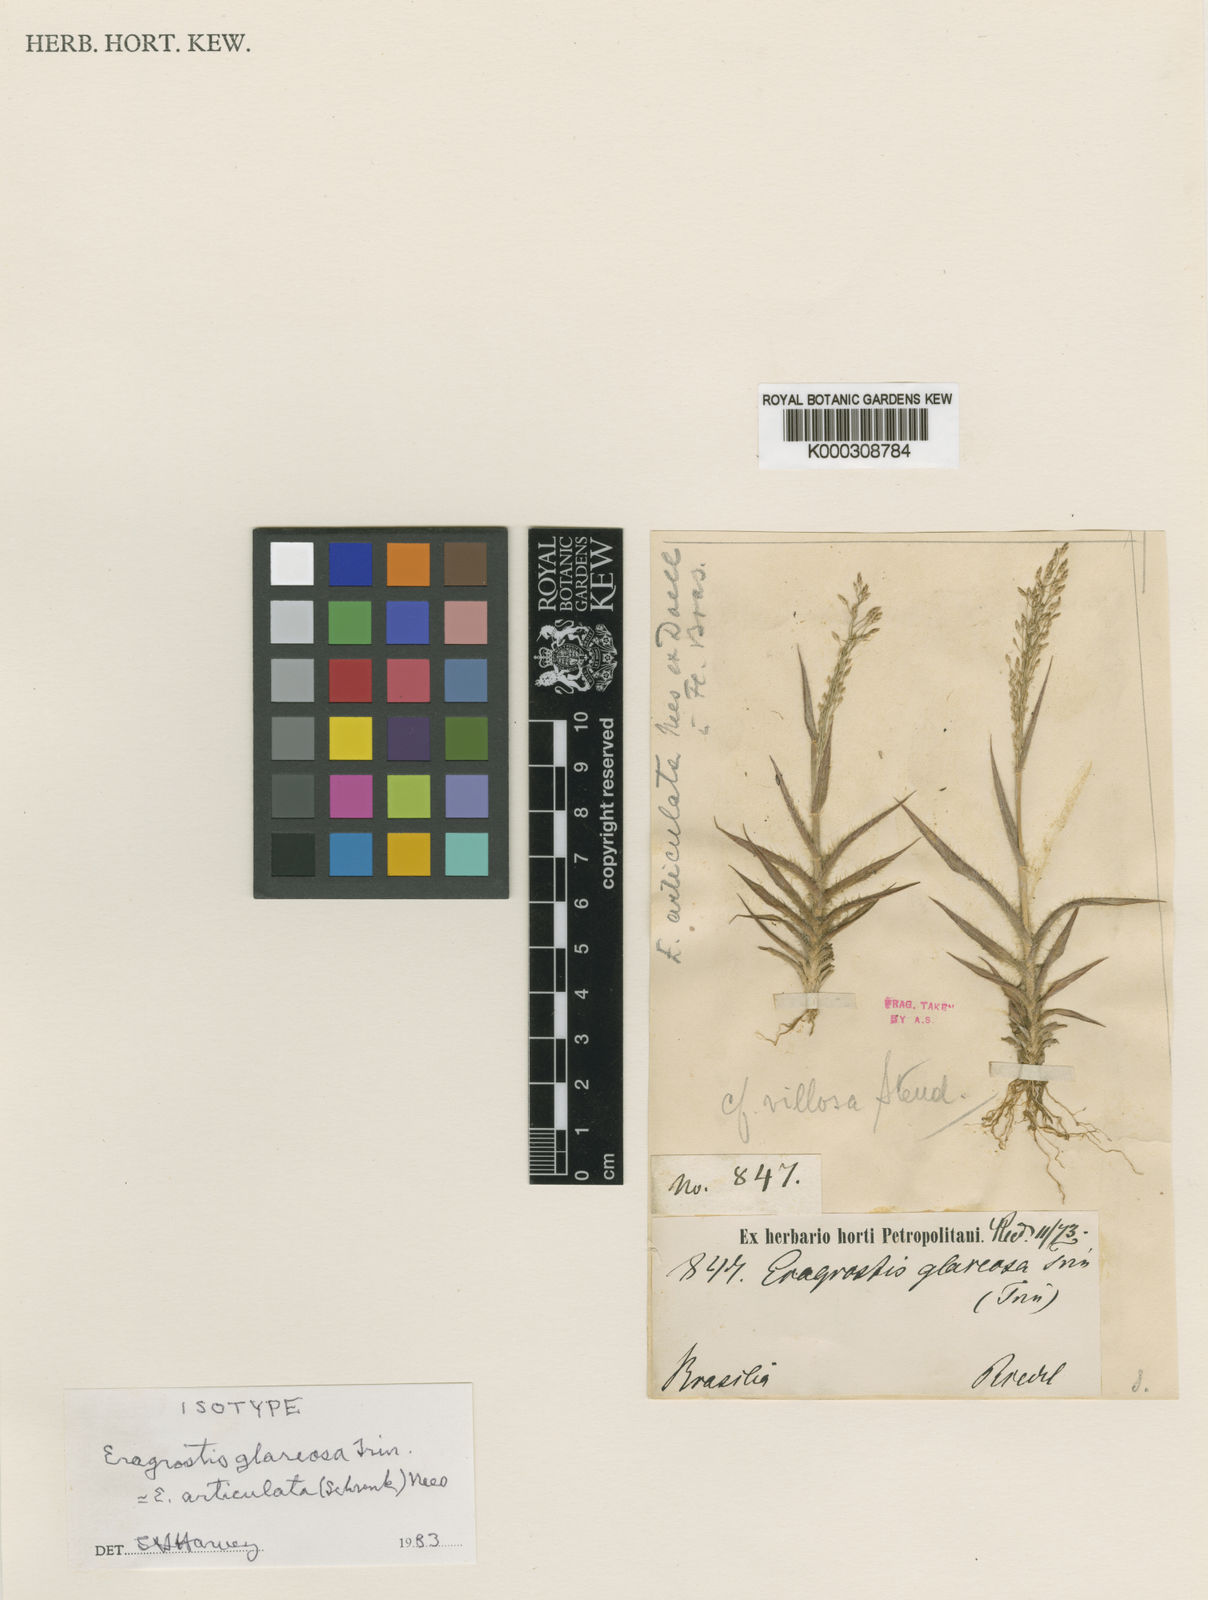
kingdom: Plantae
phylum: Tracheophyta
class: Liliopsida
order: Poales
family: Poaceae
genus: Eragrostis
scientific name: Eragrostis articulata
